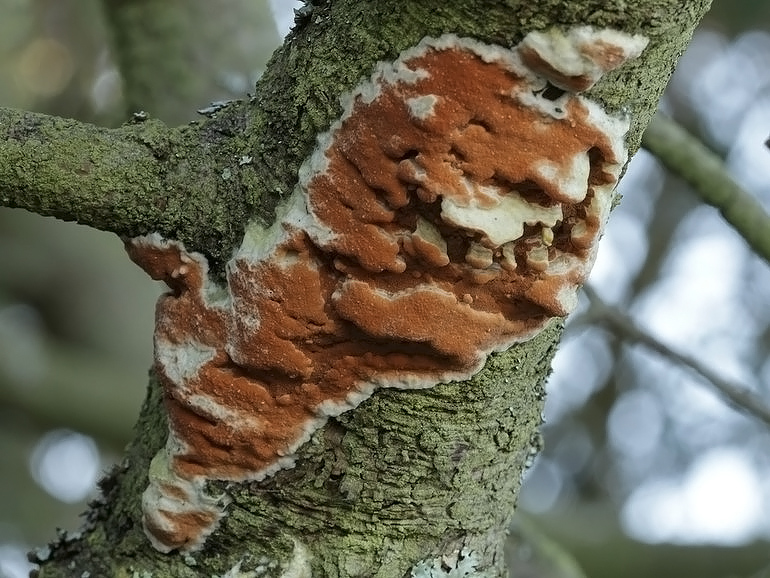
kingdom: Fungi
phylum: Basidiomycota
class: Agaricomycetes
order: Polyporales
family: Irpicaceae
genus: Meruliopsis
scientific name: Meruliopsis taxicola
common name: purpurbrun foldporesvamp
